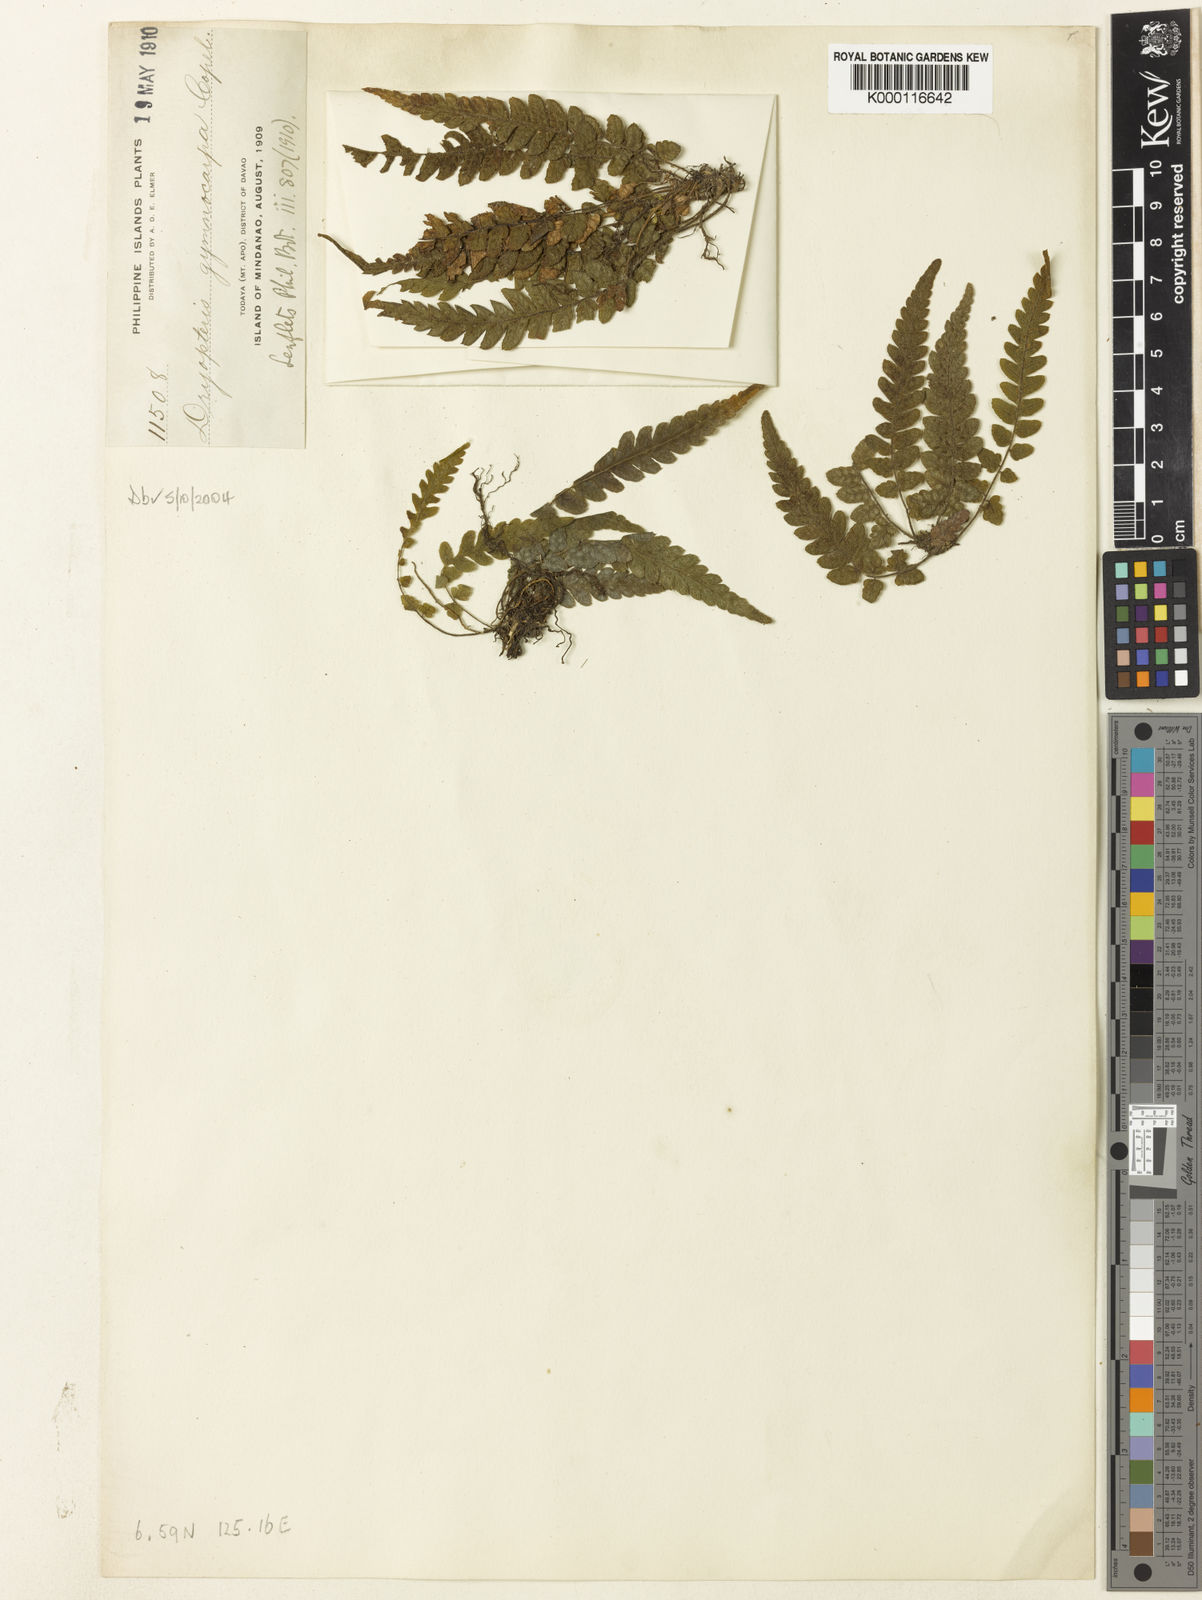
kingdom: Plantae
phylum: Tracheophyta
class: Polypodiopsida
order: Polypodiales
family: Thelypteridaceae
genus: Leptogramma
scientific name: Leptogramma gymnocarpa
